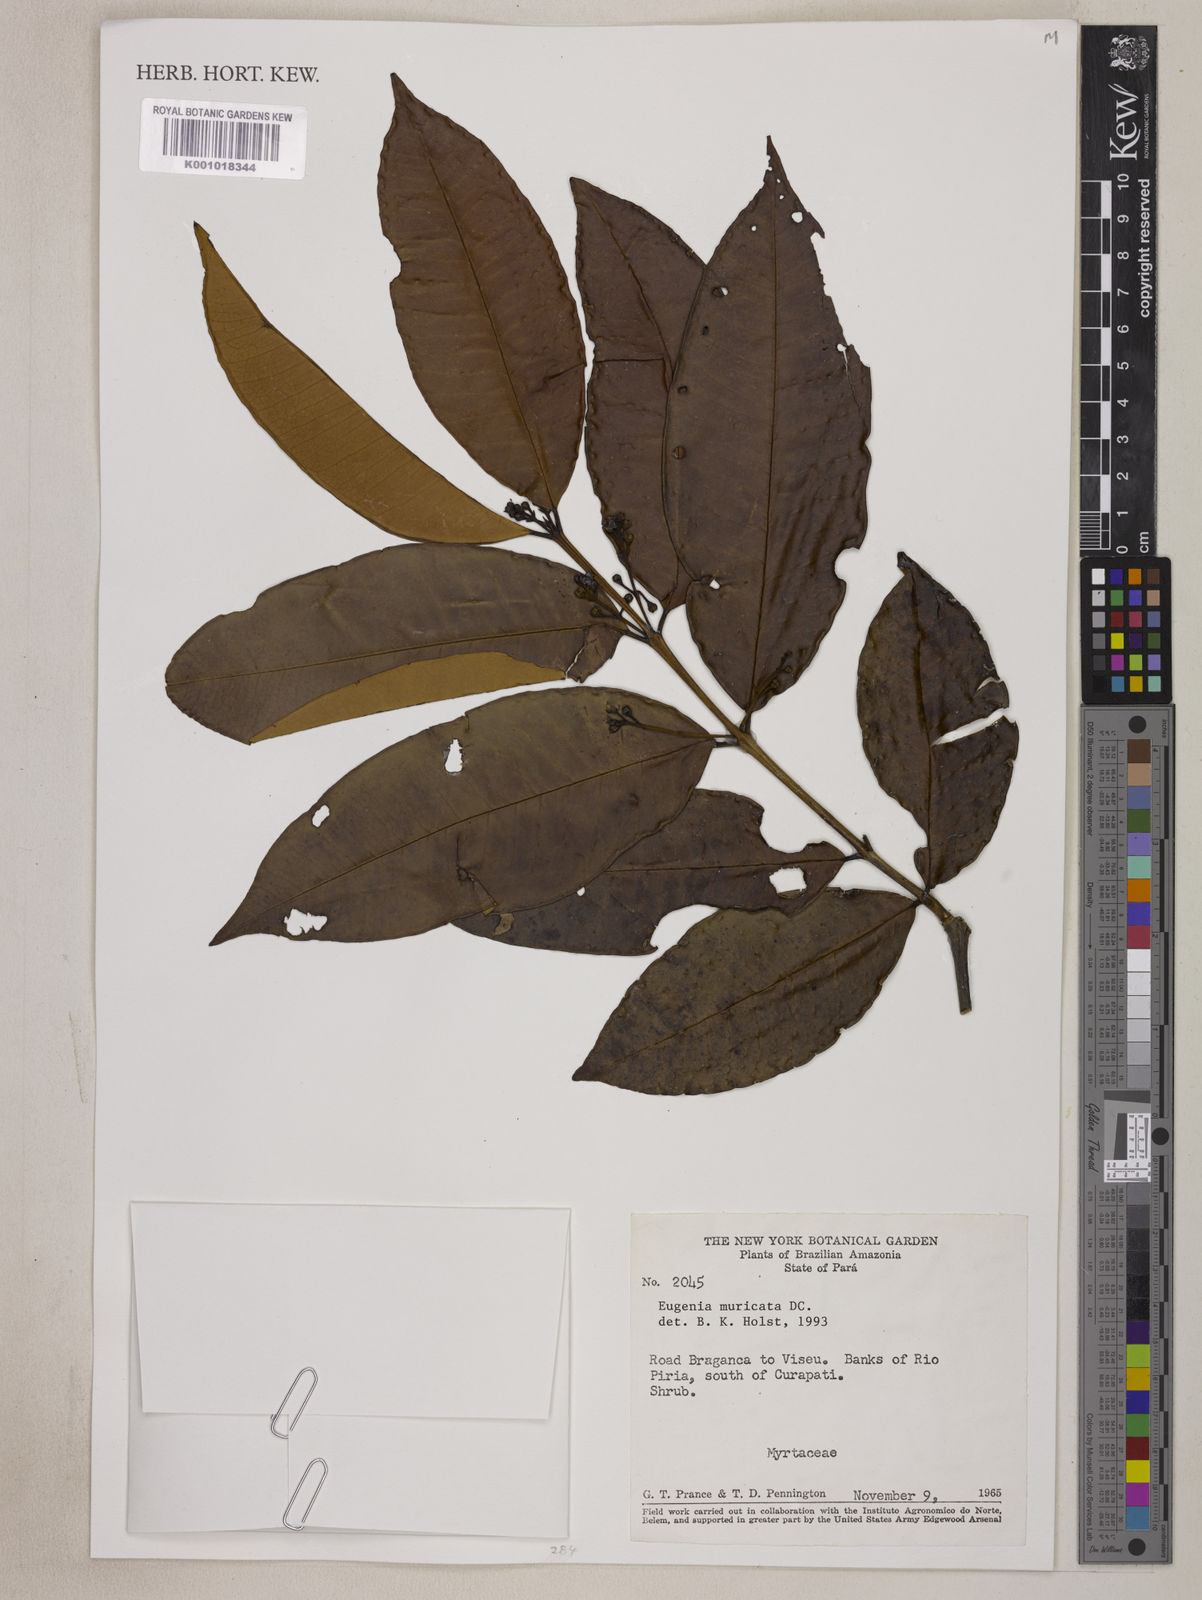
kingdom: Plantae
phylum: Tracheophyta
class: Magnoliopsida
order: Myrtales
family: Myrtaceae
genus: Eugenia
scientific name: Eugenia muricata
